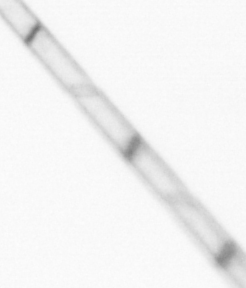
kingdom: Chromista
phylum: Ochrophyta
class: Bacillariophyceae
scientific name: Bacillariophyceae
